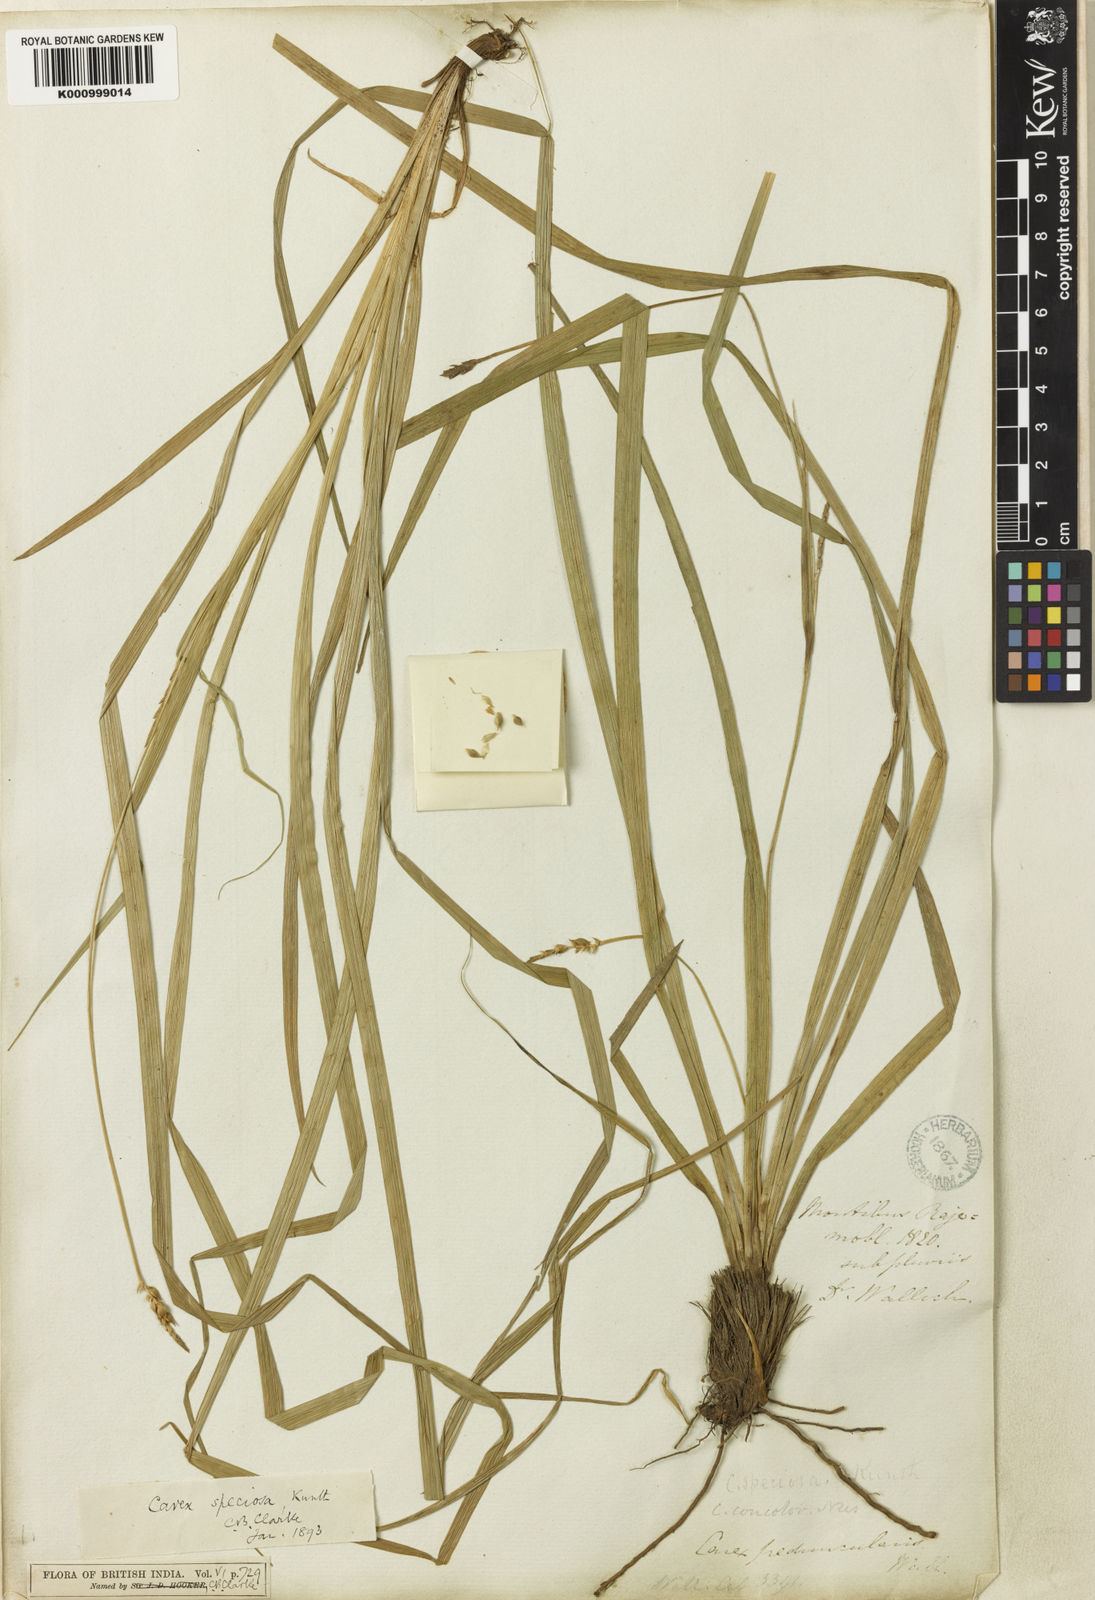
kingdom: Plantae
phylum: Tracheophyta
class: Liliopsida
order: Poales
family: Cyperaceae
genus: Carex
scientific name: Carex speciosa
